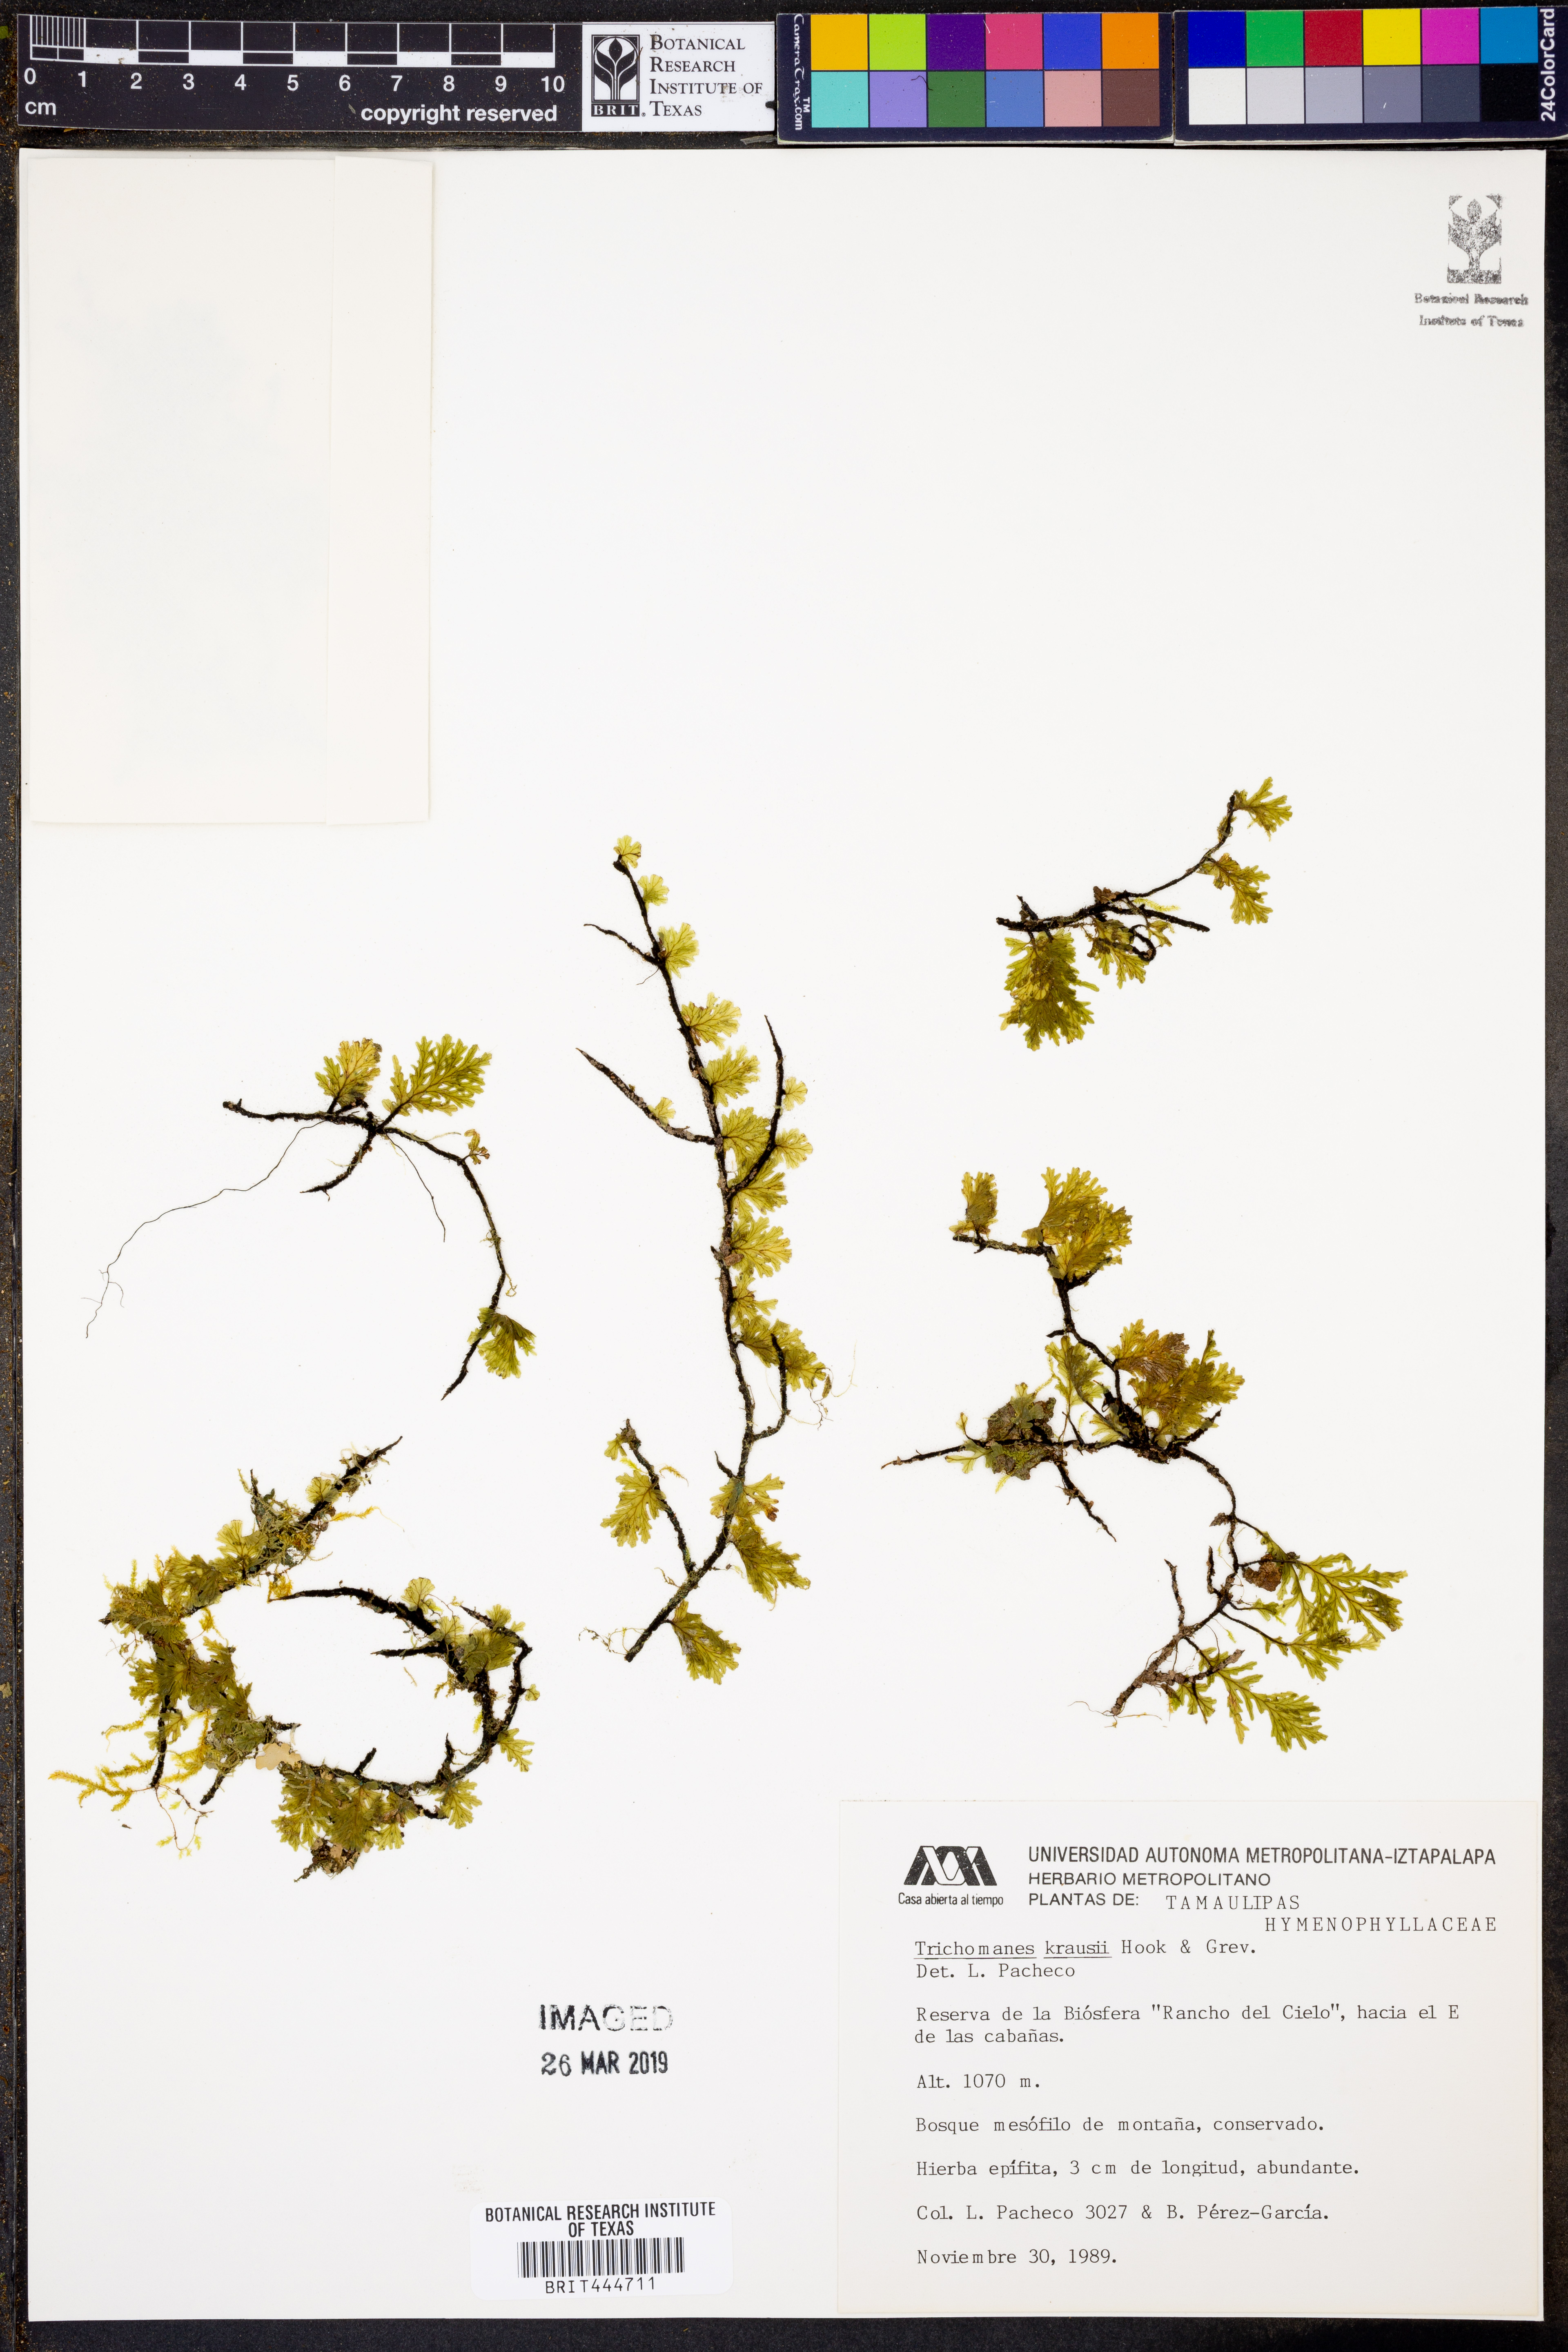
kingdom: Plantae
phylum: Tracheophyta
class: Polypodiopsida
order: Hymenophyllales
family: Hymenophyllaceae
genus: Didymoglossum
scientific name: Didymoglossum kraussii
